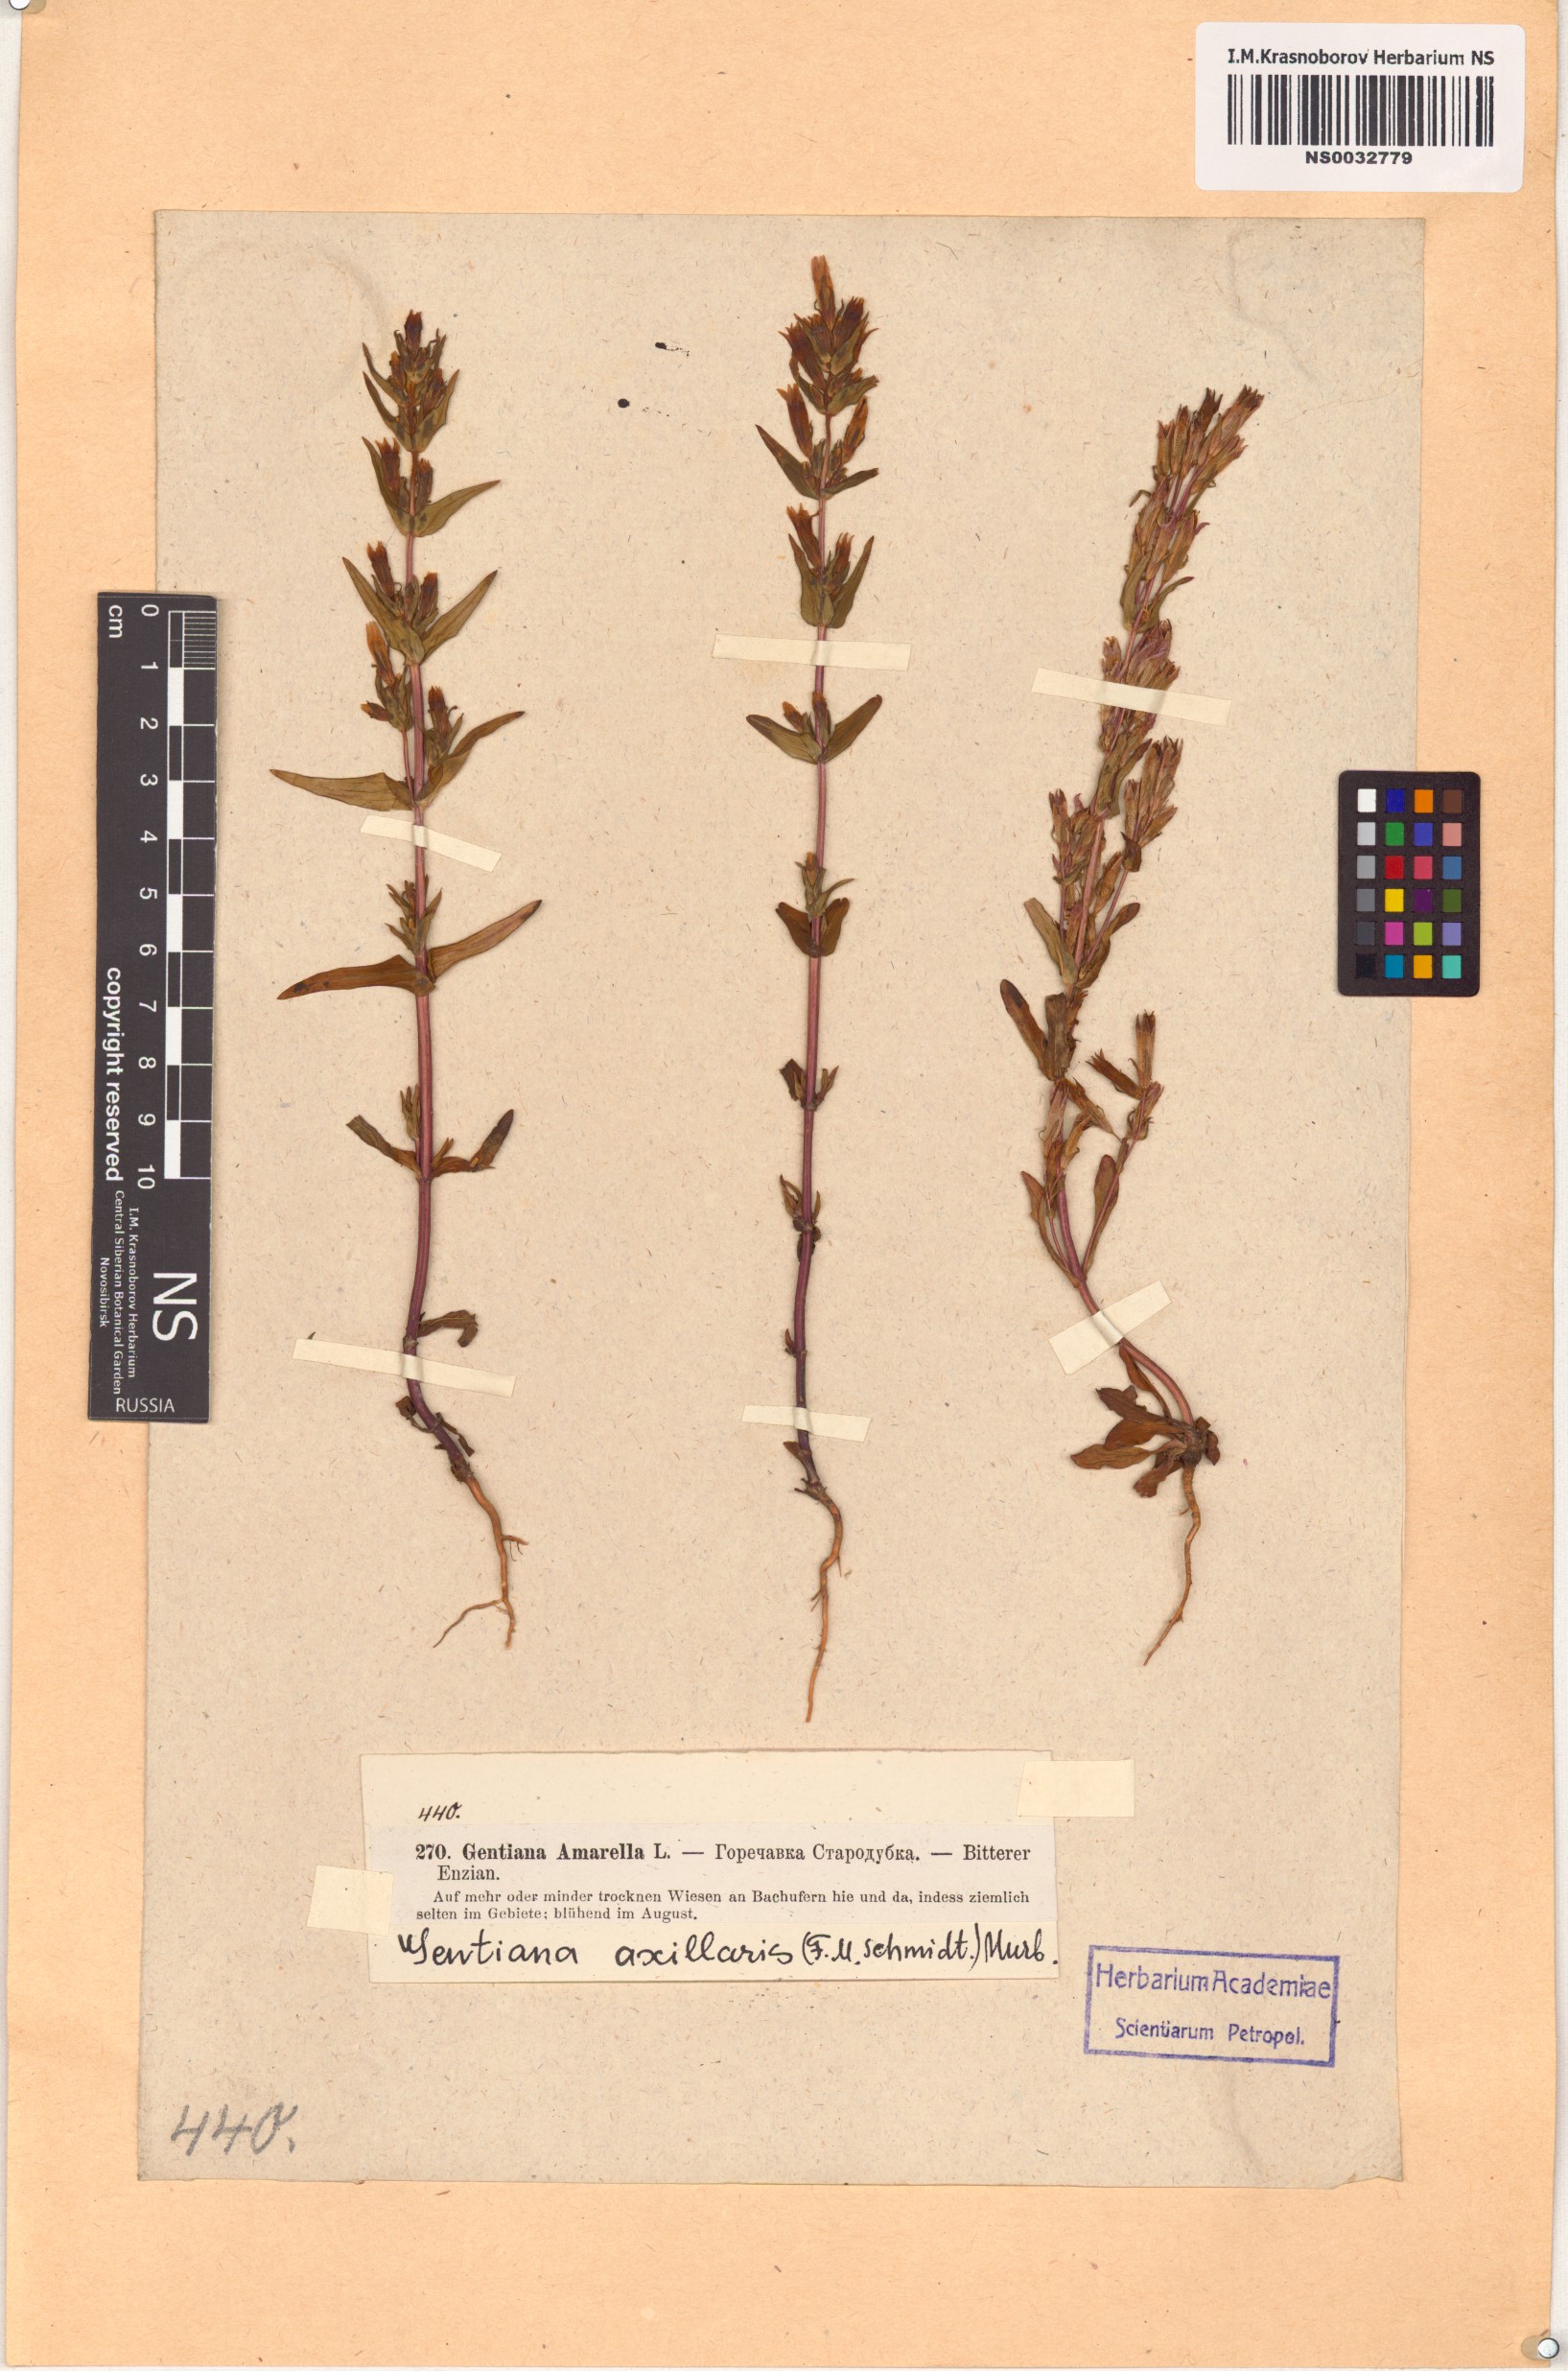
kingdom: Plantae
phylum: Tracheophyta
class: Magnoliopsida
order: Gentianales
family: Gentianaceae
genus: Gentianella
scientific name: Gentianella amarella
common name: Autumn gentian
